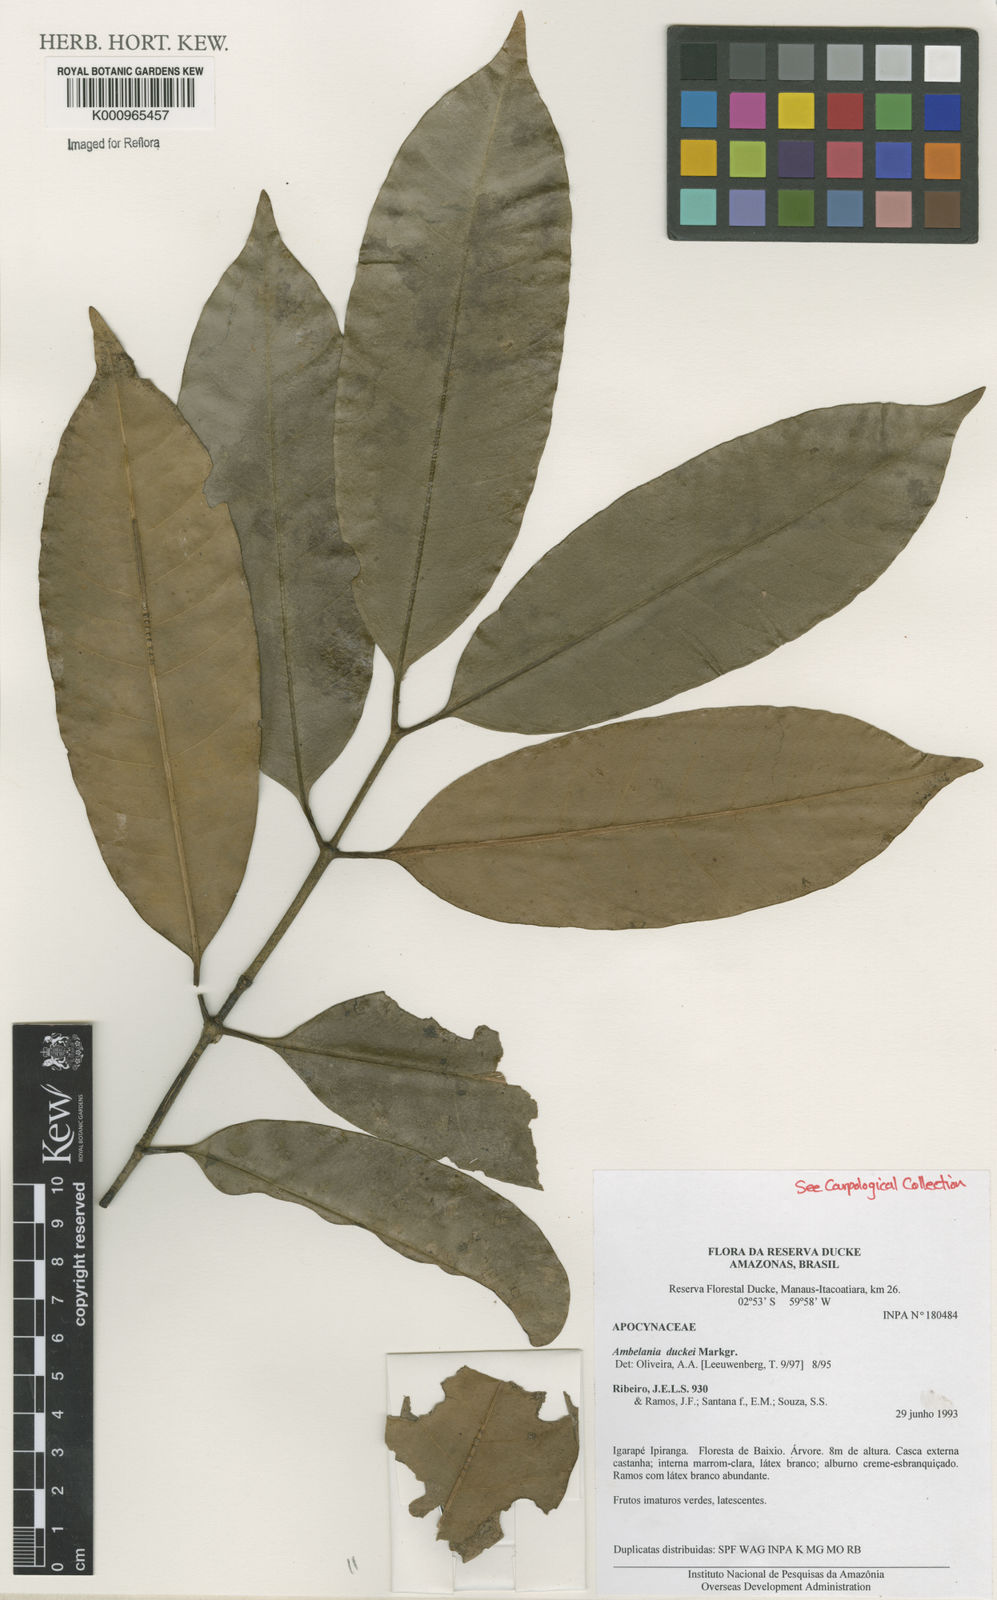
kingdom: Plantae
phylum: Tracheophyta
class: Magnoliopsida
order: Gentianales
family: Apocynaceae
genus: Ambelania
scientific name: Ambelania duckei
